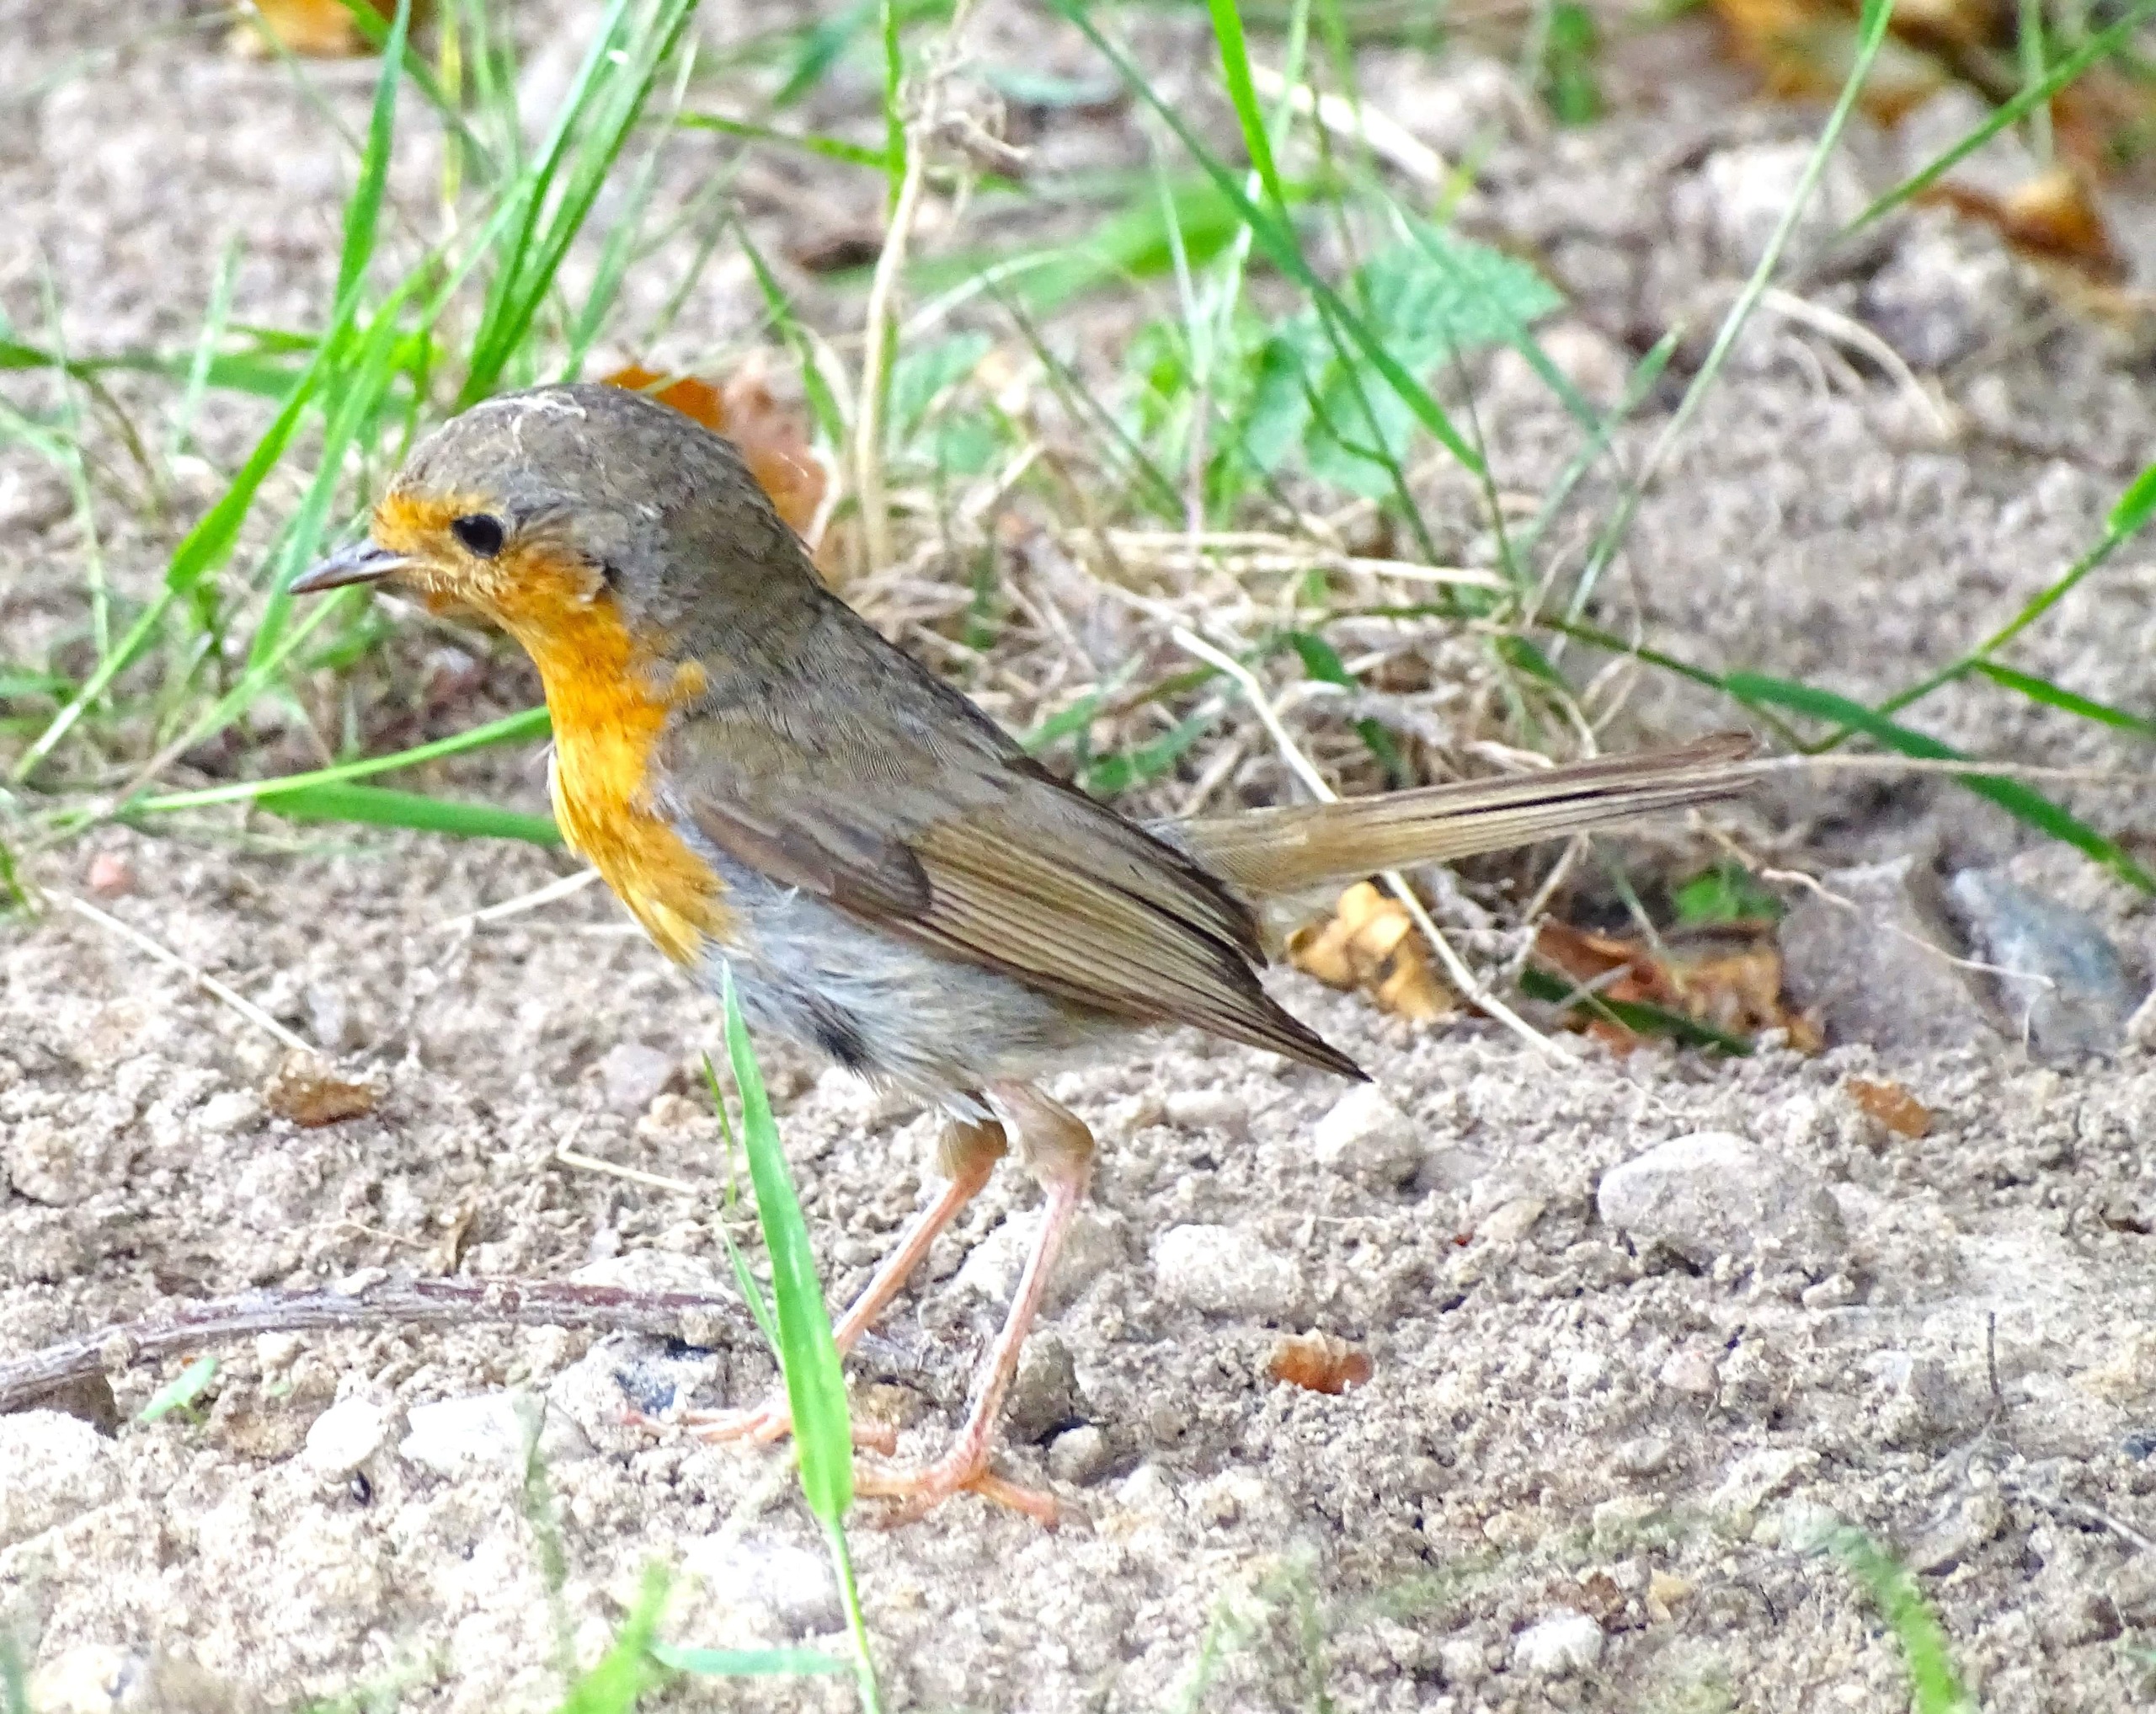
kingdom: Animalia
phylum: Chordata
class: Aves
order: Passeriformes
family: Muscicapidae
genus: Erithacus
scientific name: Erithacus rubecula
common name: Rødhals/rødkælk
